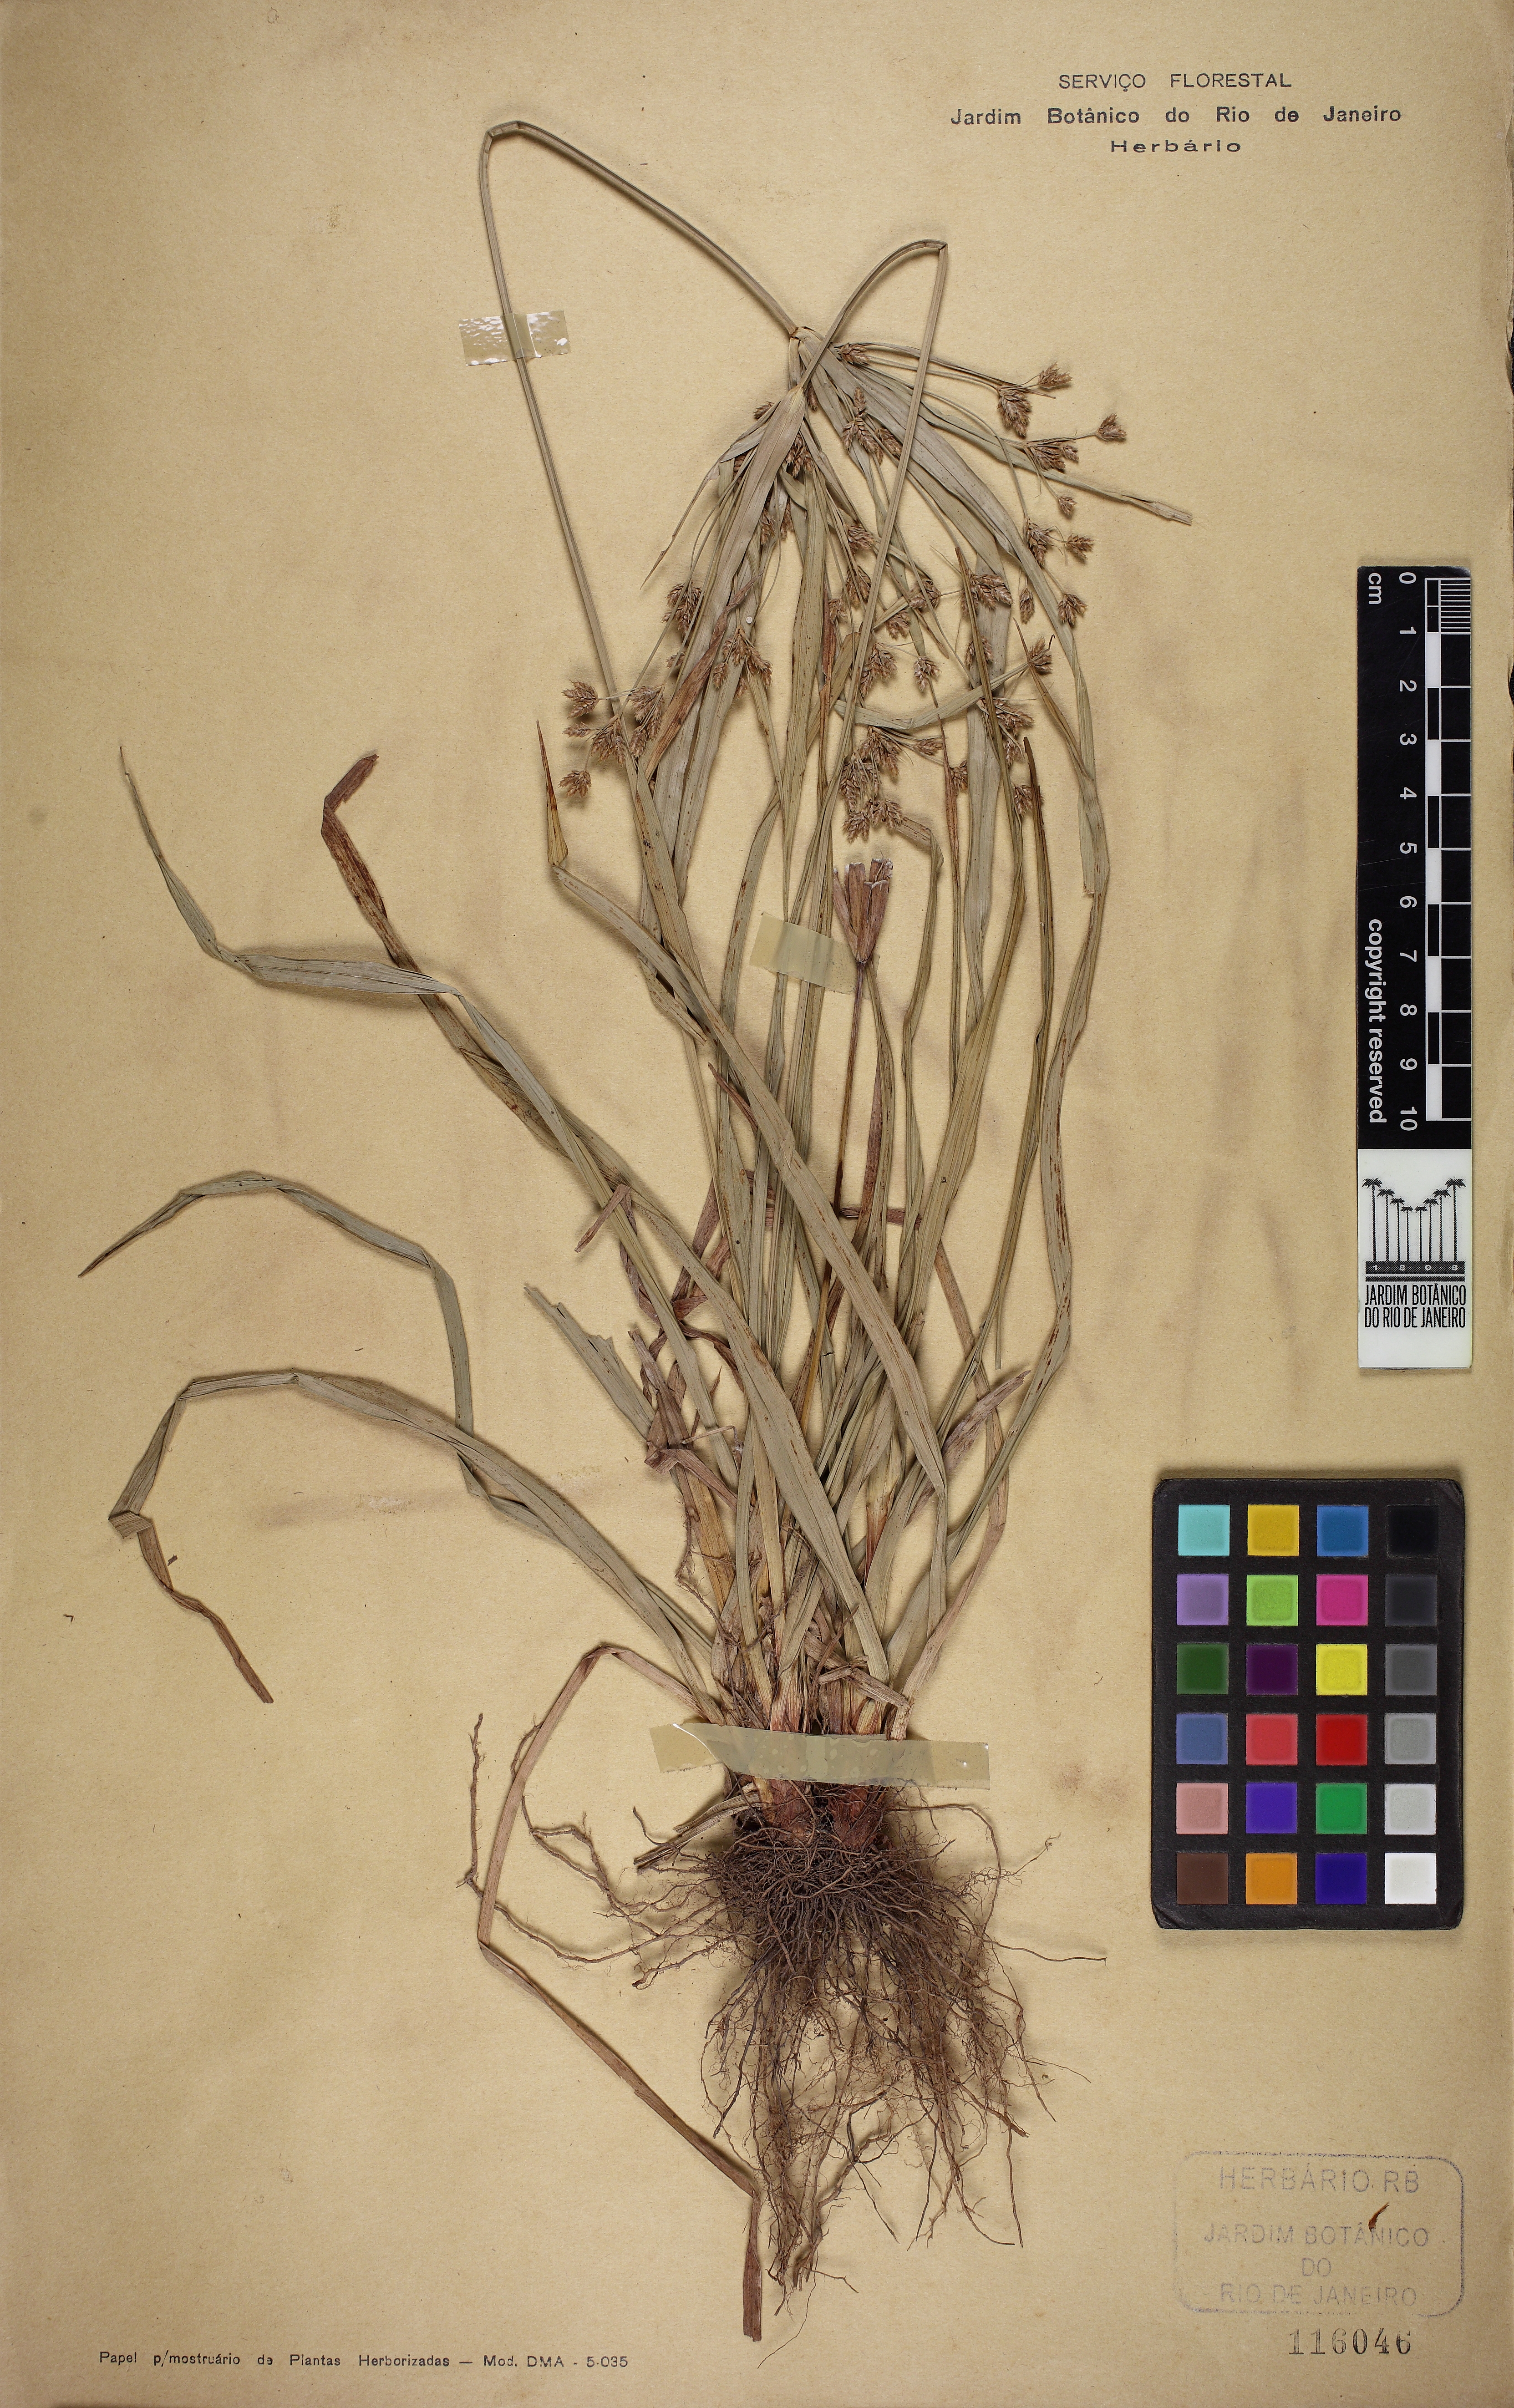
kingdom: Plantae
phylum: Tracheophyta
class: Liliopsida
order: Poales
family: Cyperaceae
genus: Cyperus
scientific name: Cyperus laxus
